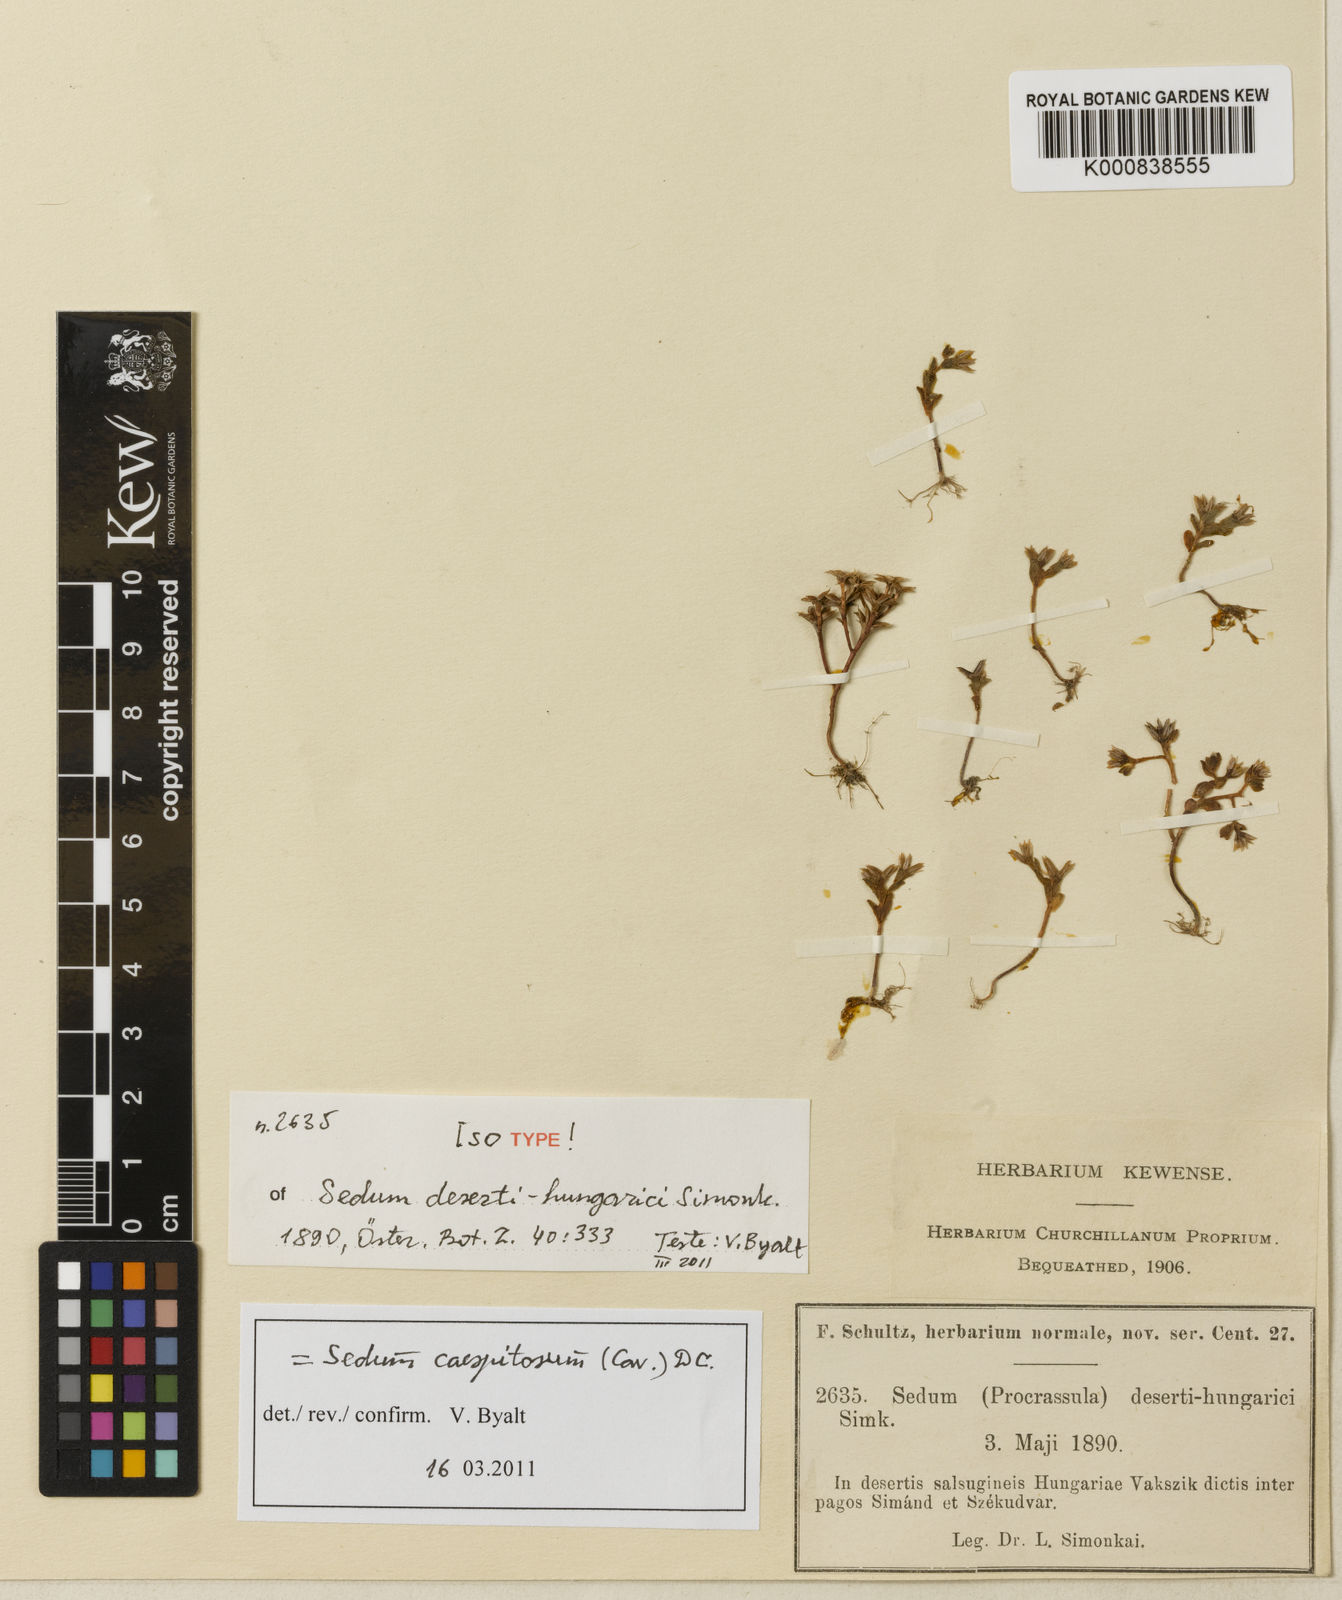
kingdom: Plantae
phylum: Tracheophyta
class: Magnoliopsida
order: Saxifragales
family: Crassulaceae
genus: Sedum
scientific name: Sedum cespitosum
